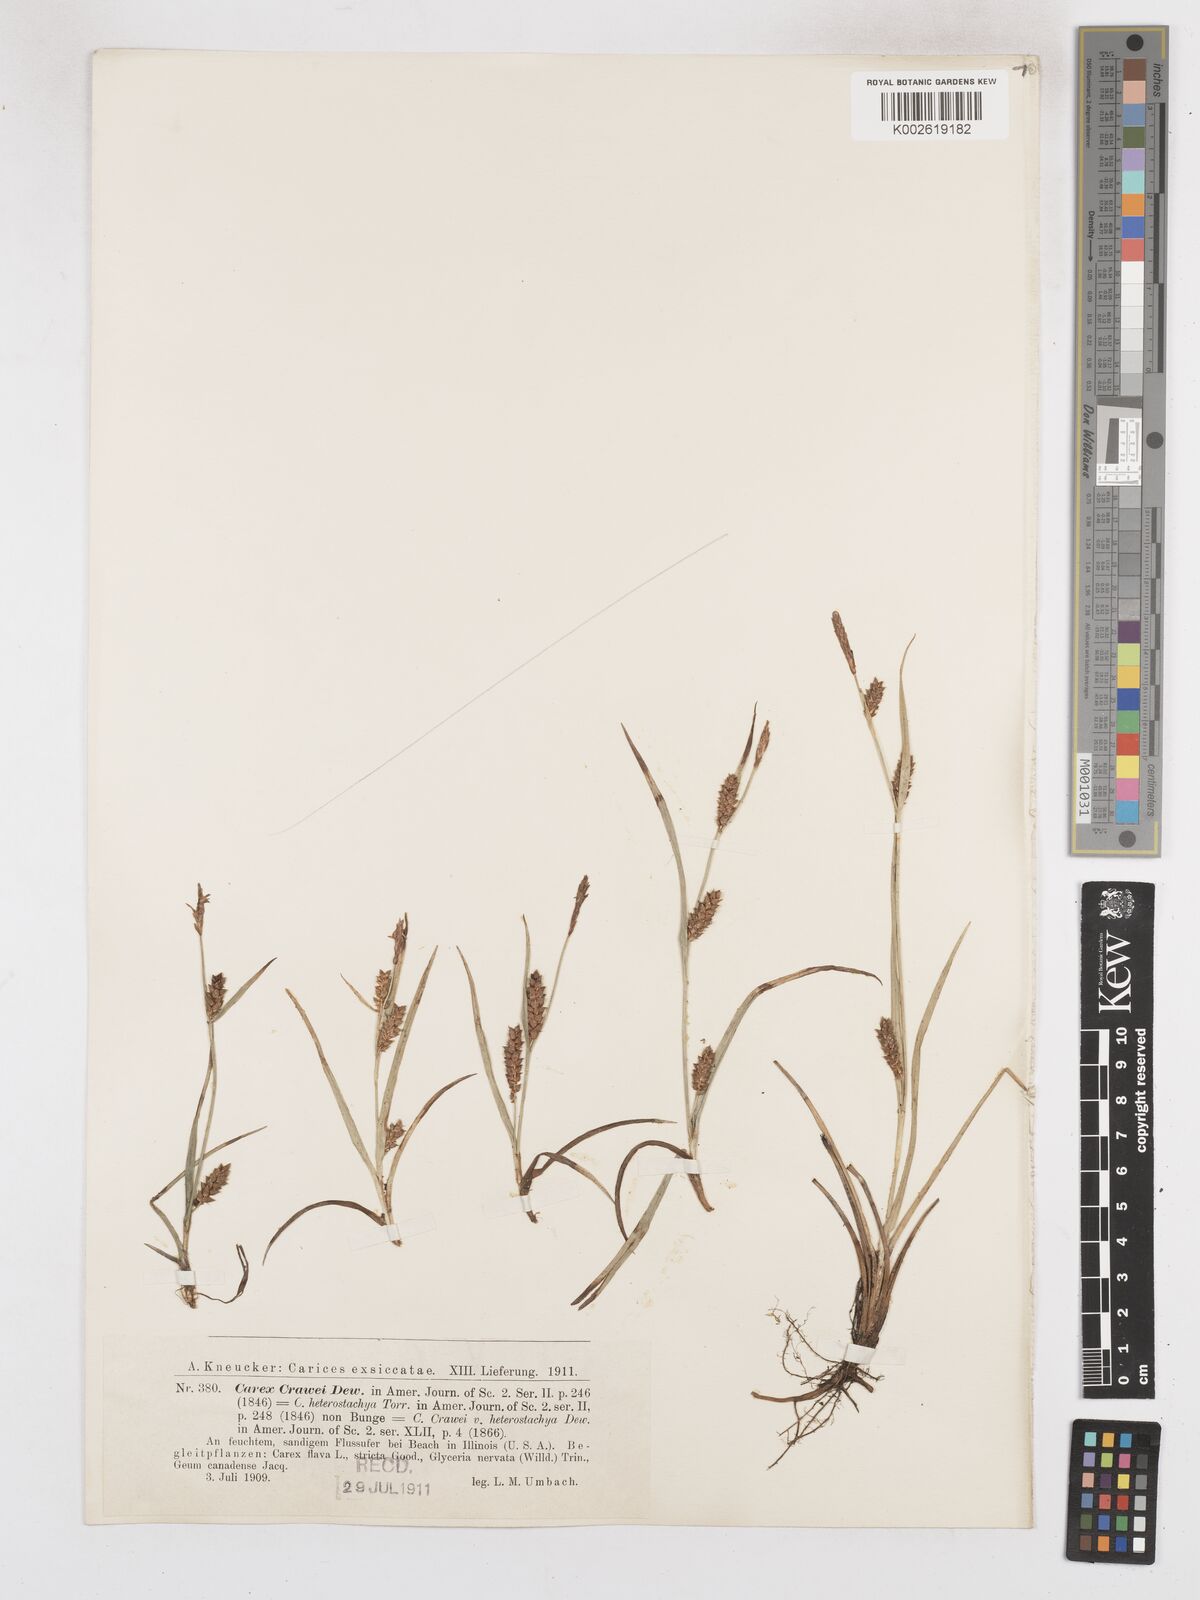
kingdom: Plantae
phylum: Tracheophyta
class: Liliopsida
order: Poales
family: Cyperaceae
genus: Carex
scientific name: Carex crawei
